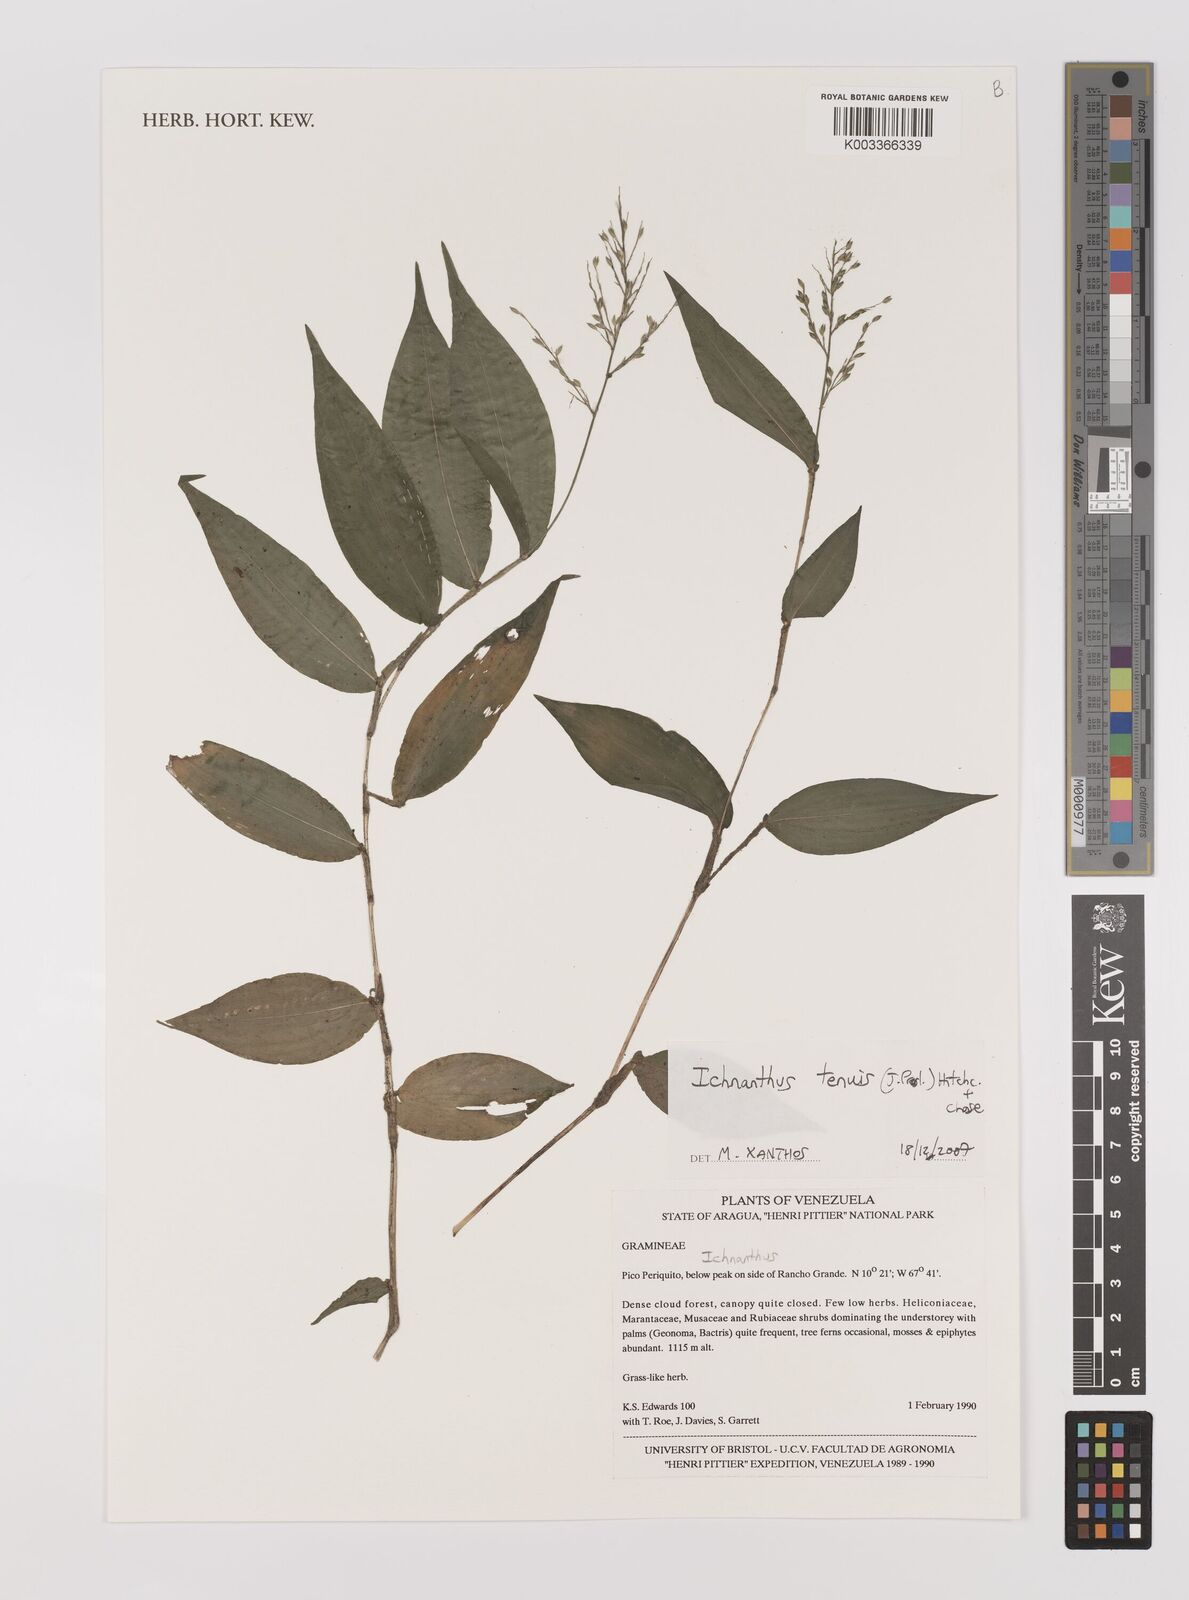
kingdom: Plantae
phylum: Tracheophyta
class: Liliopsida
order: Poales
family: Poaceae
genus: Ichnanthus
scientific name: Ichnanthus tenuis
